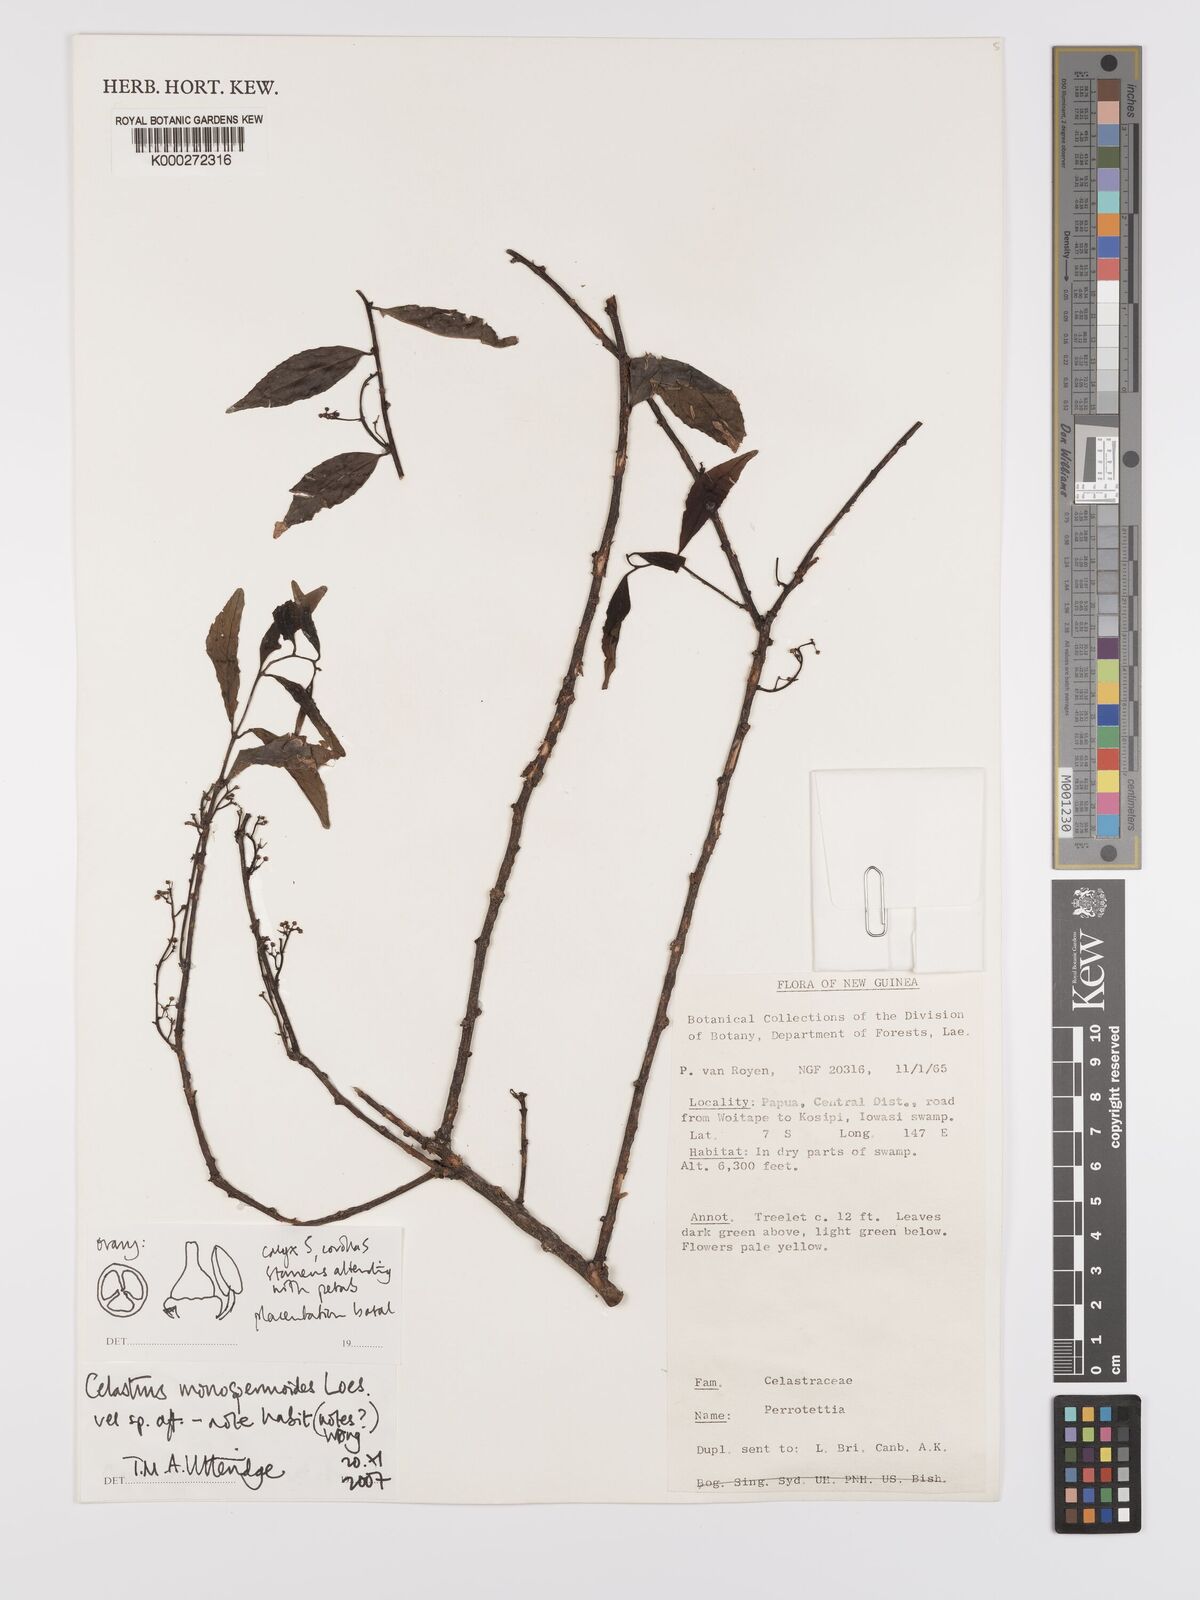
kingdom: Plantae
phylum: Tracheophyta
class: Magnoliopsida
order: Celastrales
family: Celastraceae
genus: Celastrus
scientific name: Celastrus monospermoides
